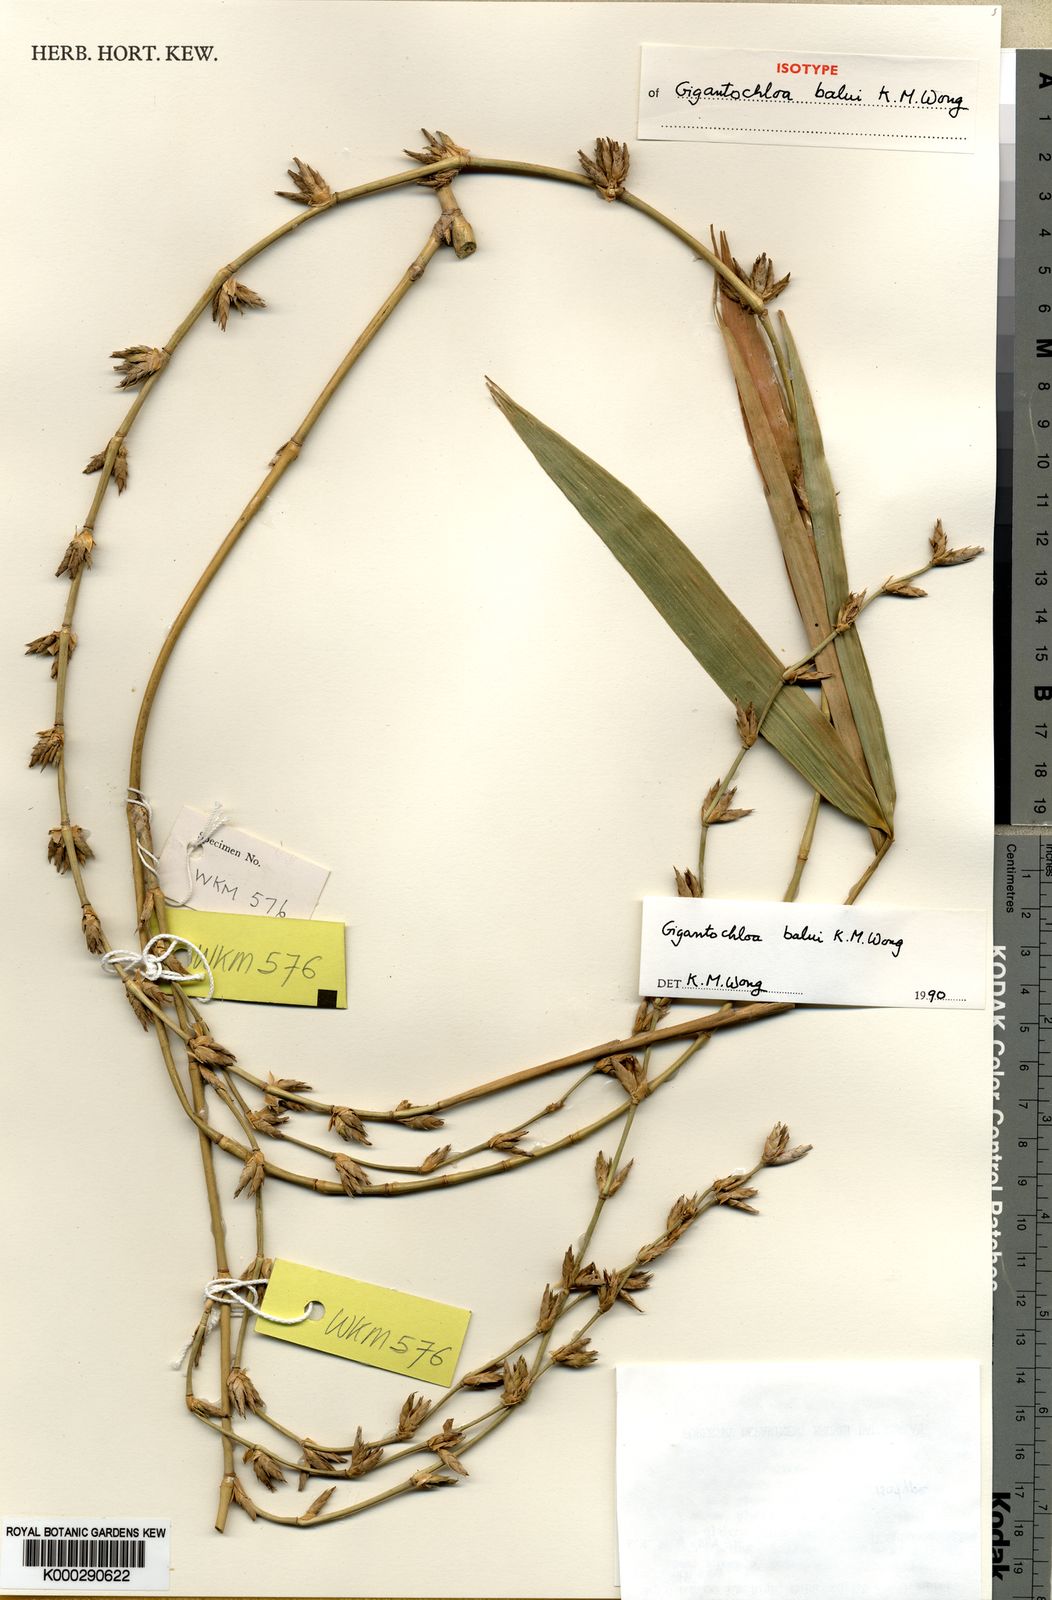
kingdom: Plantae
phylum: Tracheophyta
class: Liliopsida
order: Poales
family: Poaceae
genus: Gigantochloa
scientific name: Gigantochloa balui
